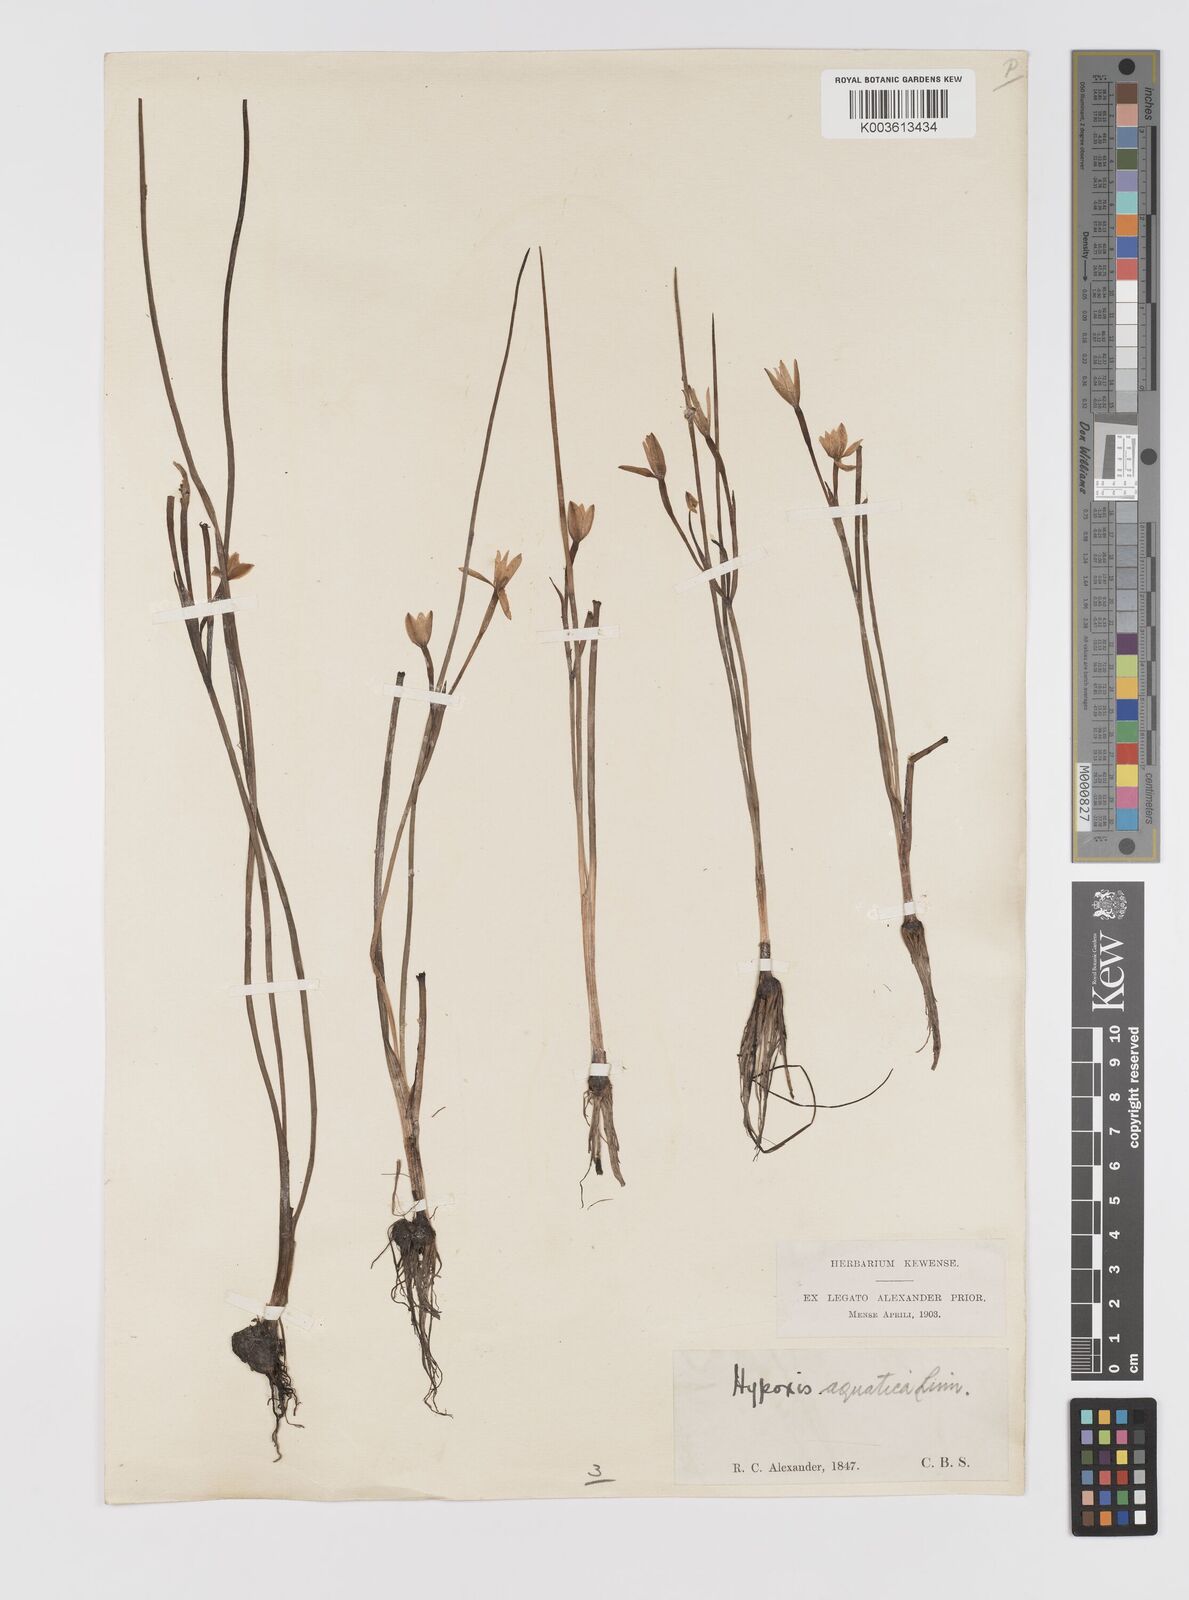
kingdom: Plantae
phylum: Tracheophyta
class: Liliopsida
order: Asparagales
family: Hypoxidaceae
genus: Pauridia
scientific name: Pauridia aquatica
